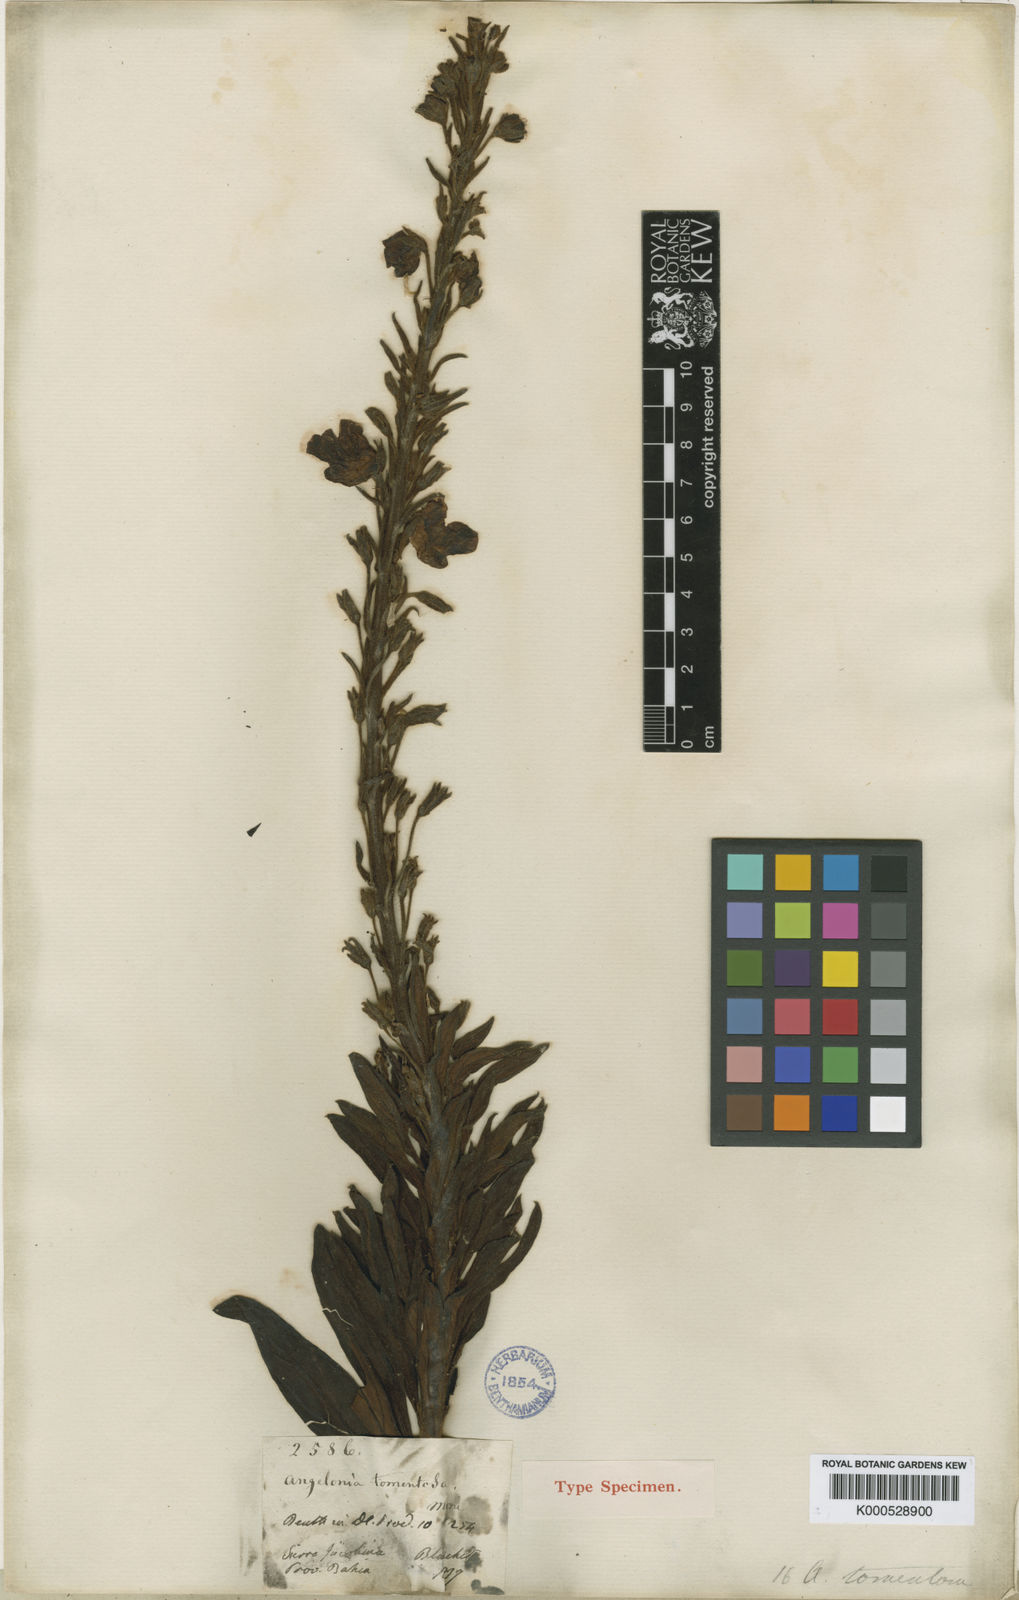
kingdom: Plantae
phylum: Tracheophyta
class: Magnoliopsida
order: Lamiales
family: Plantaginaceae
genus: Angelonia
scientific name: Angelonia tomentosa
